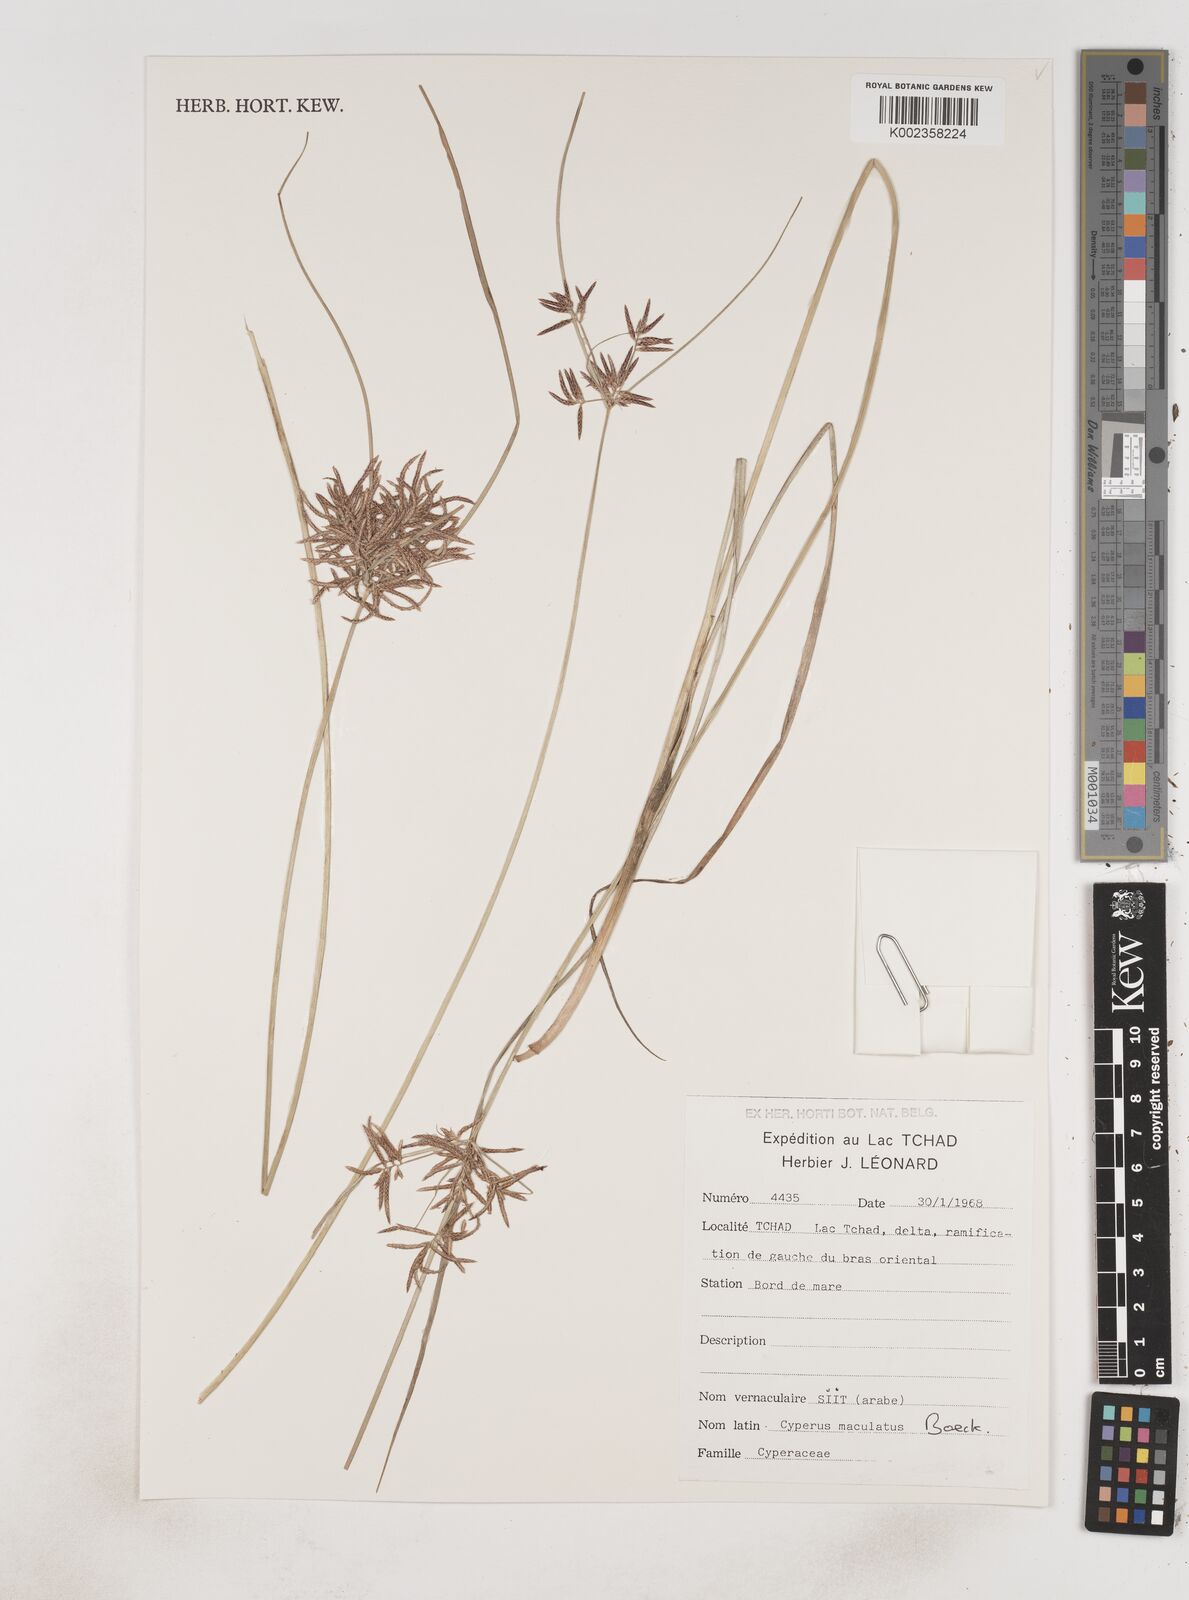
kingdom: Plantae
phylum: Tracheophyta
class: Liliopsida
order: Poales
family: Cyperaceae
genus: Cyperus
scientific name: Cyperus maculatus
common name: Maculated sedge
